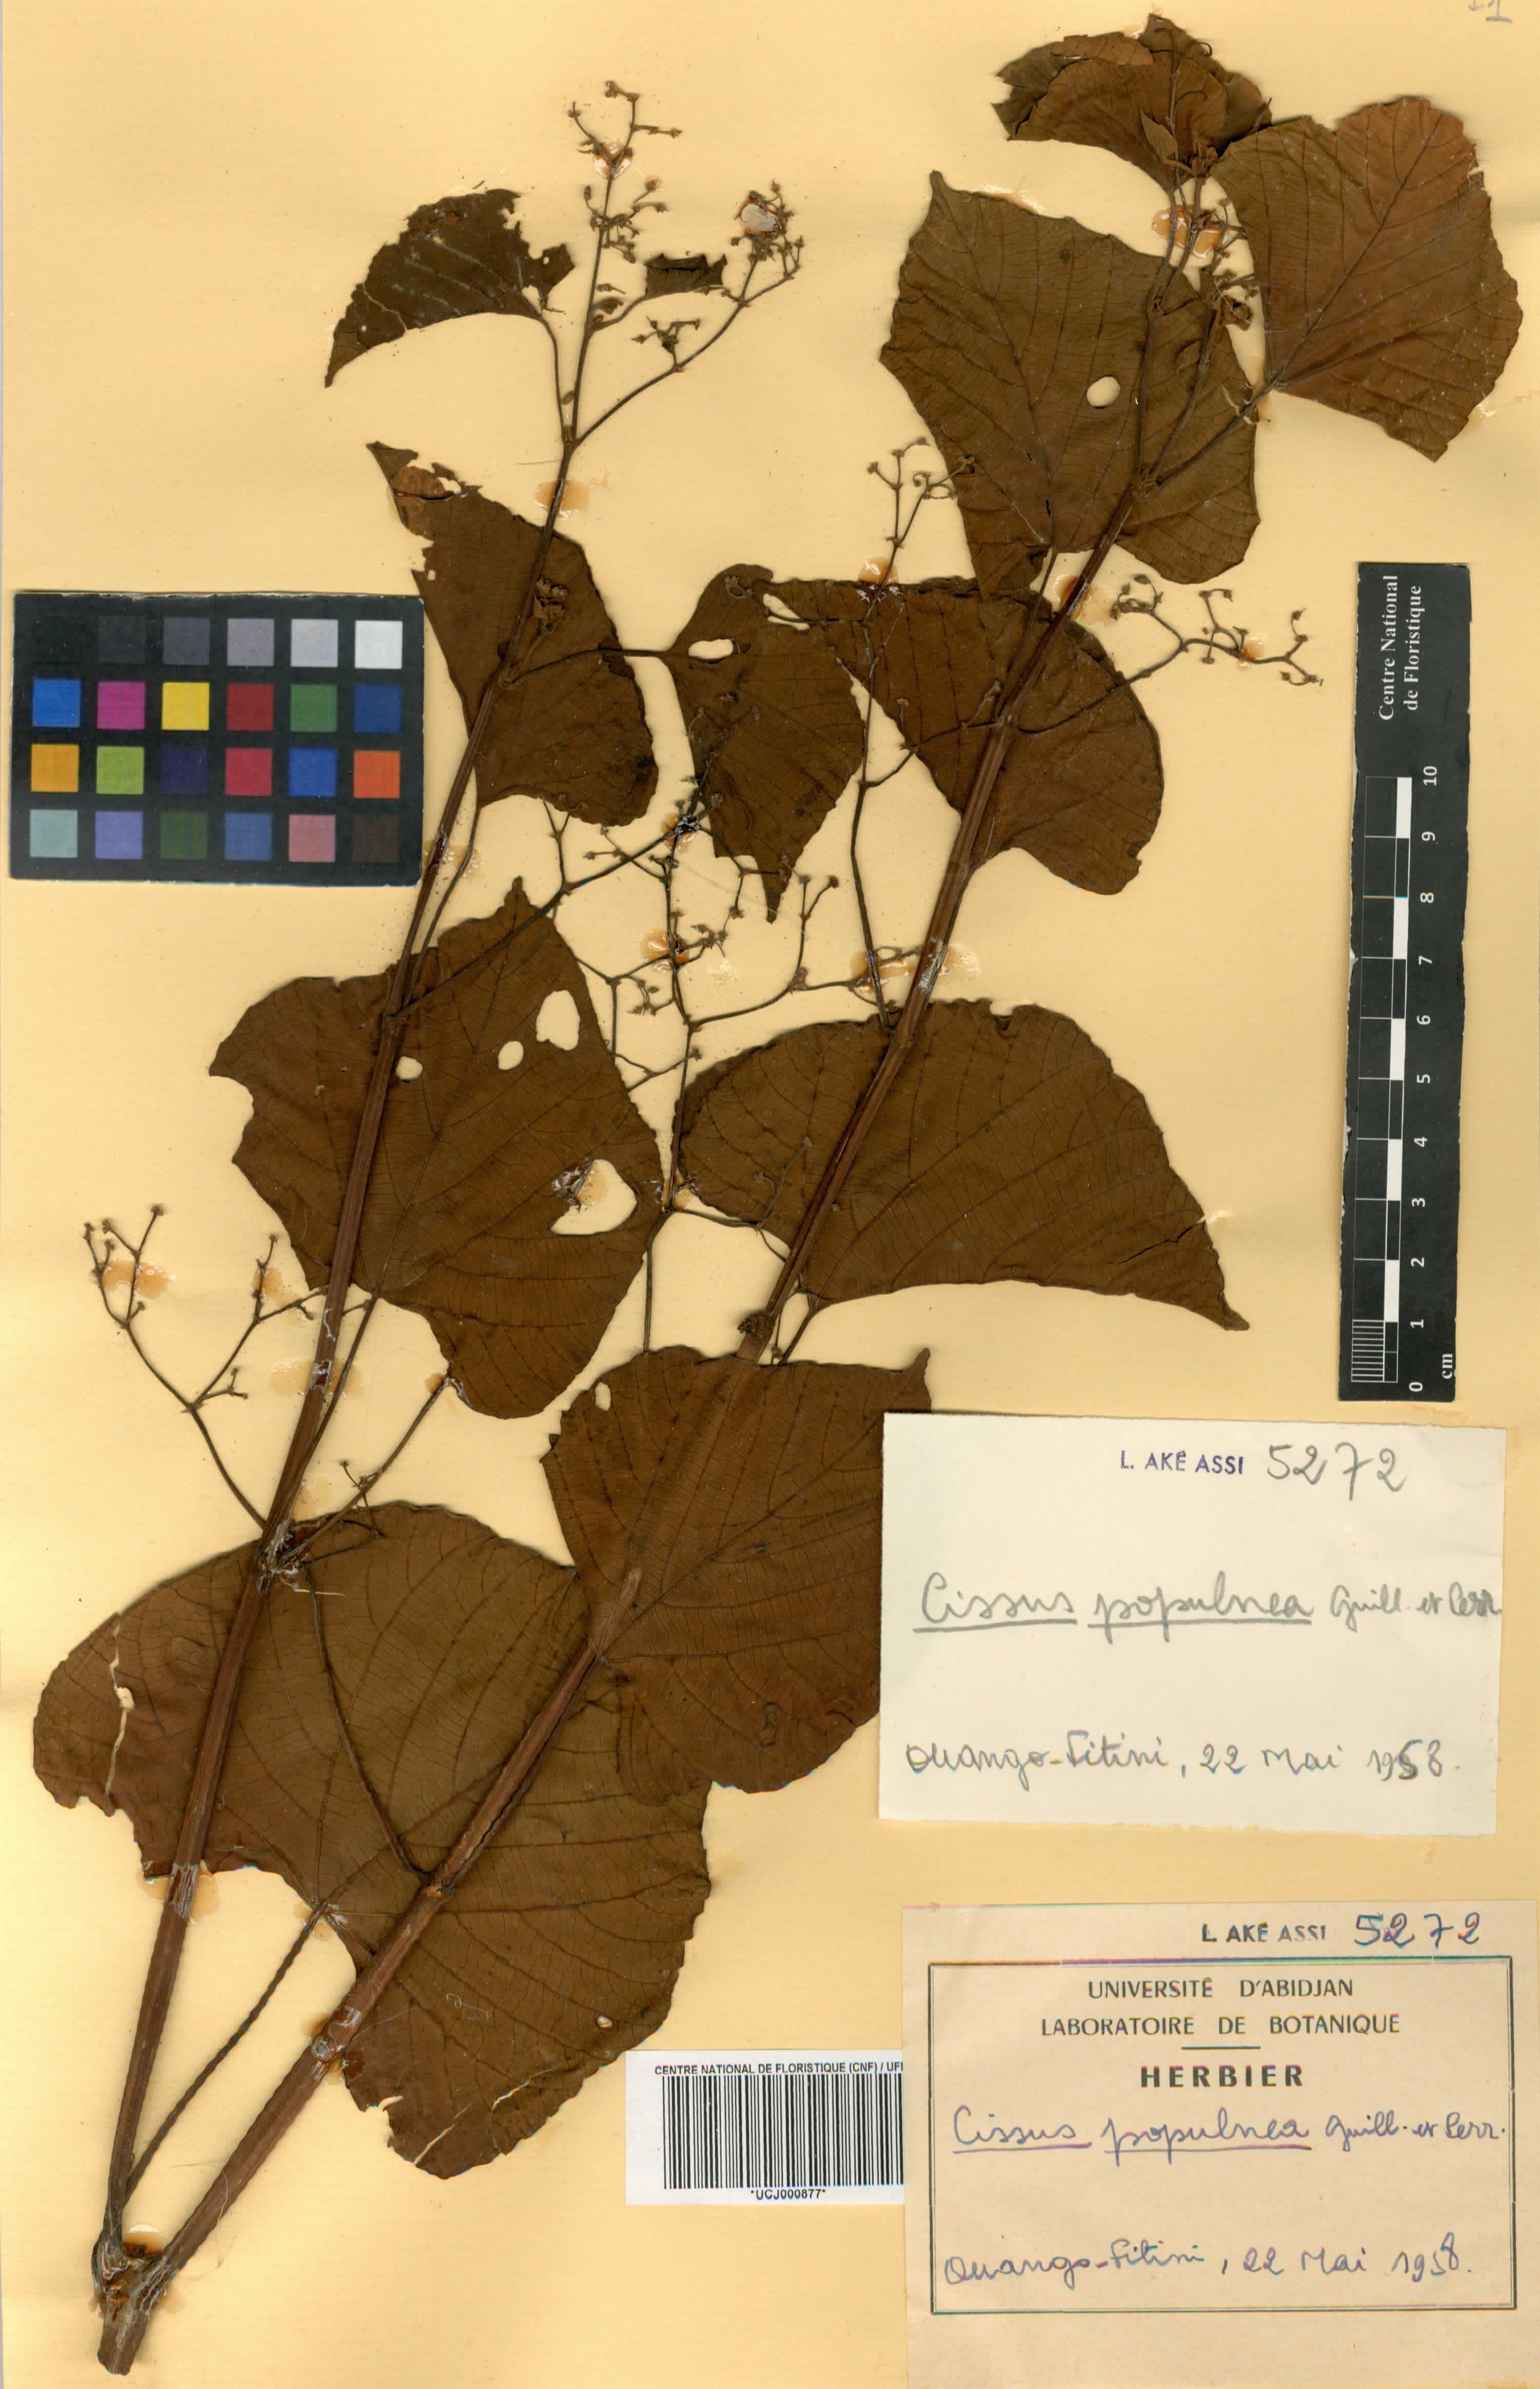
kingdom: Plantae
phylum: Tracheophyta
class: Magnoliopsida
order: Vitales
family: Vitaceae
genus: Cissus
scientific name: Cissus populnea
